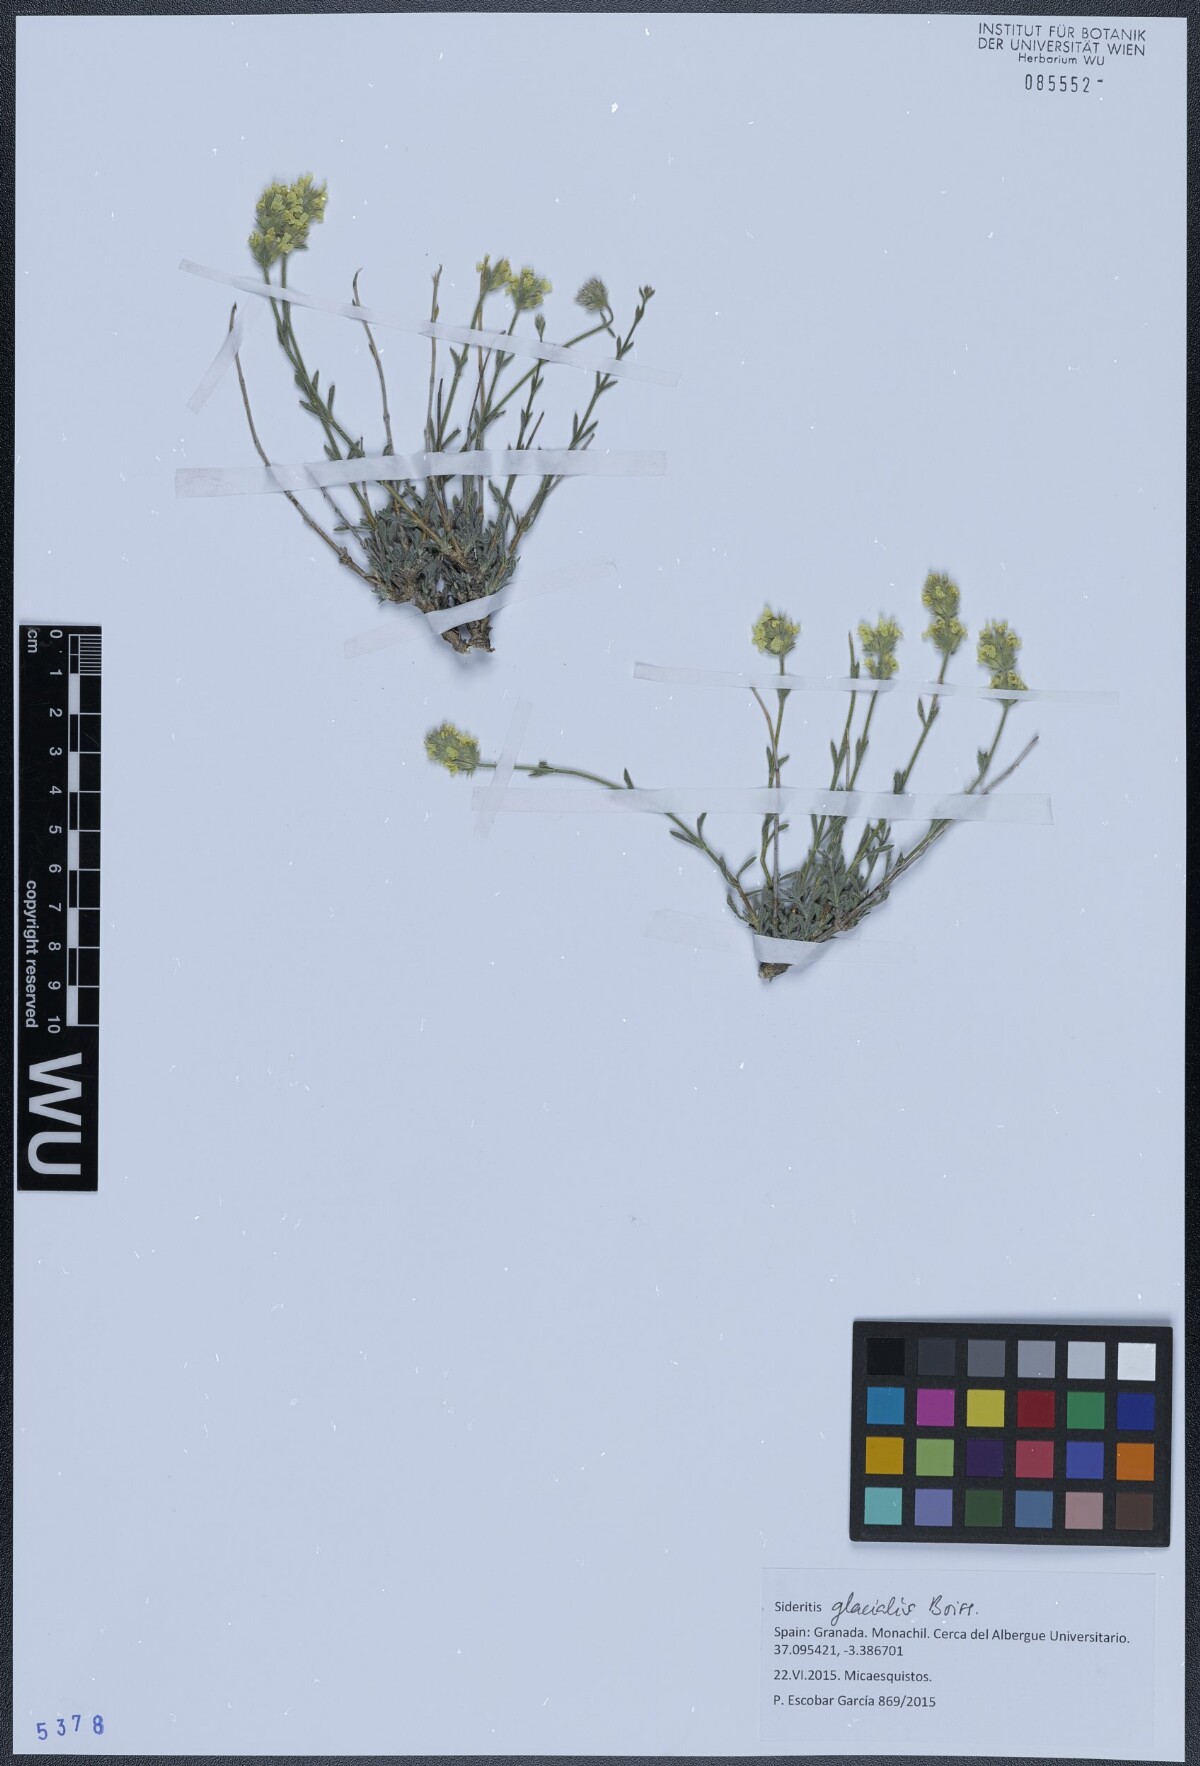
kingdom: Plantae
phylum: Tracheophyta
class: Magnoliopsida
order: Lamiales
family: Lamiaceae
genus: Sideritis
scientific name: Sideritis glacialis
